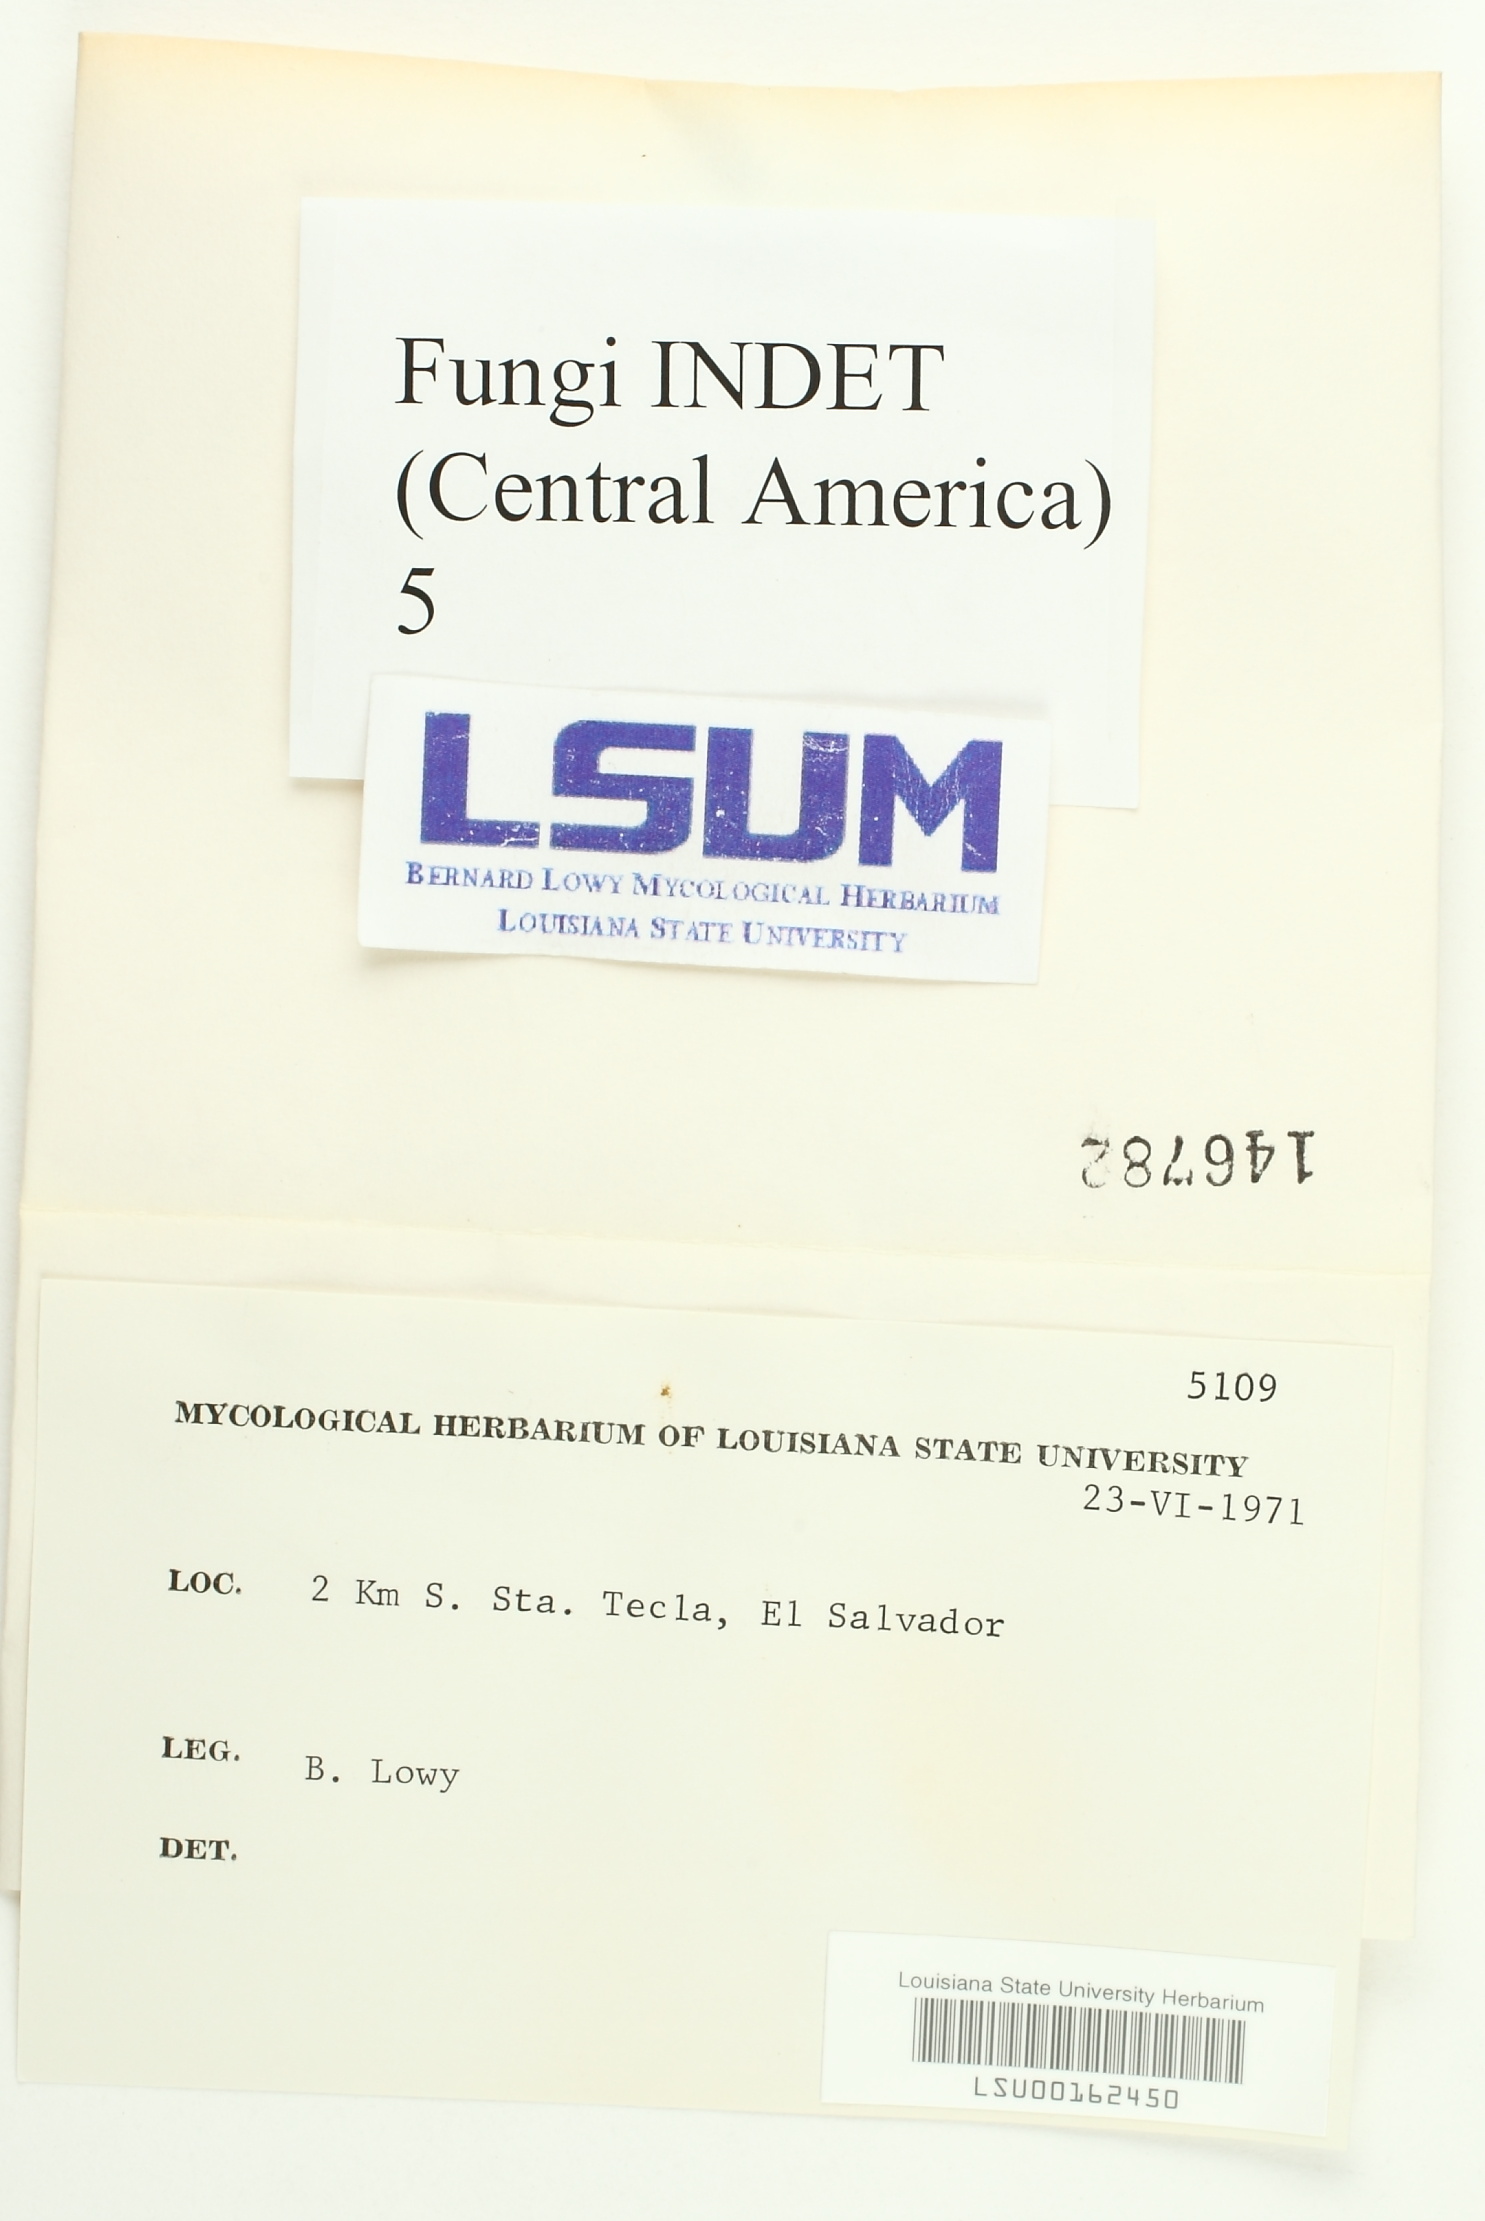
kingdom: Fungi
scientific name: Fungi
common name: Fungi
